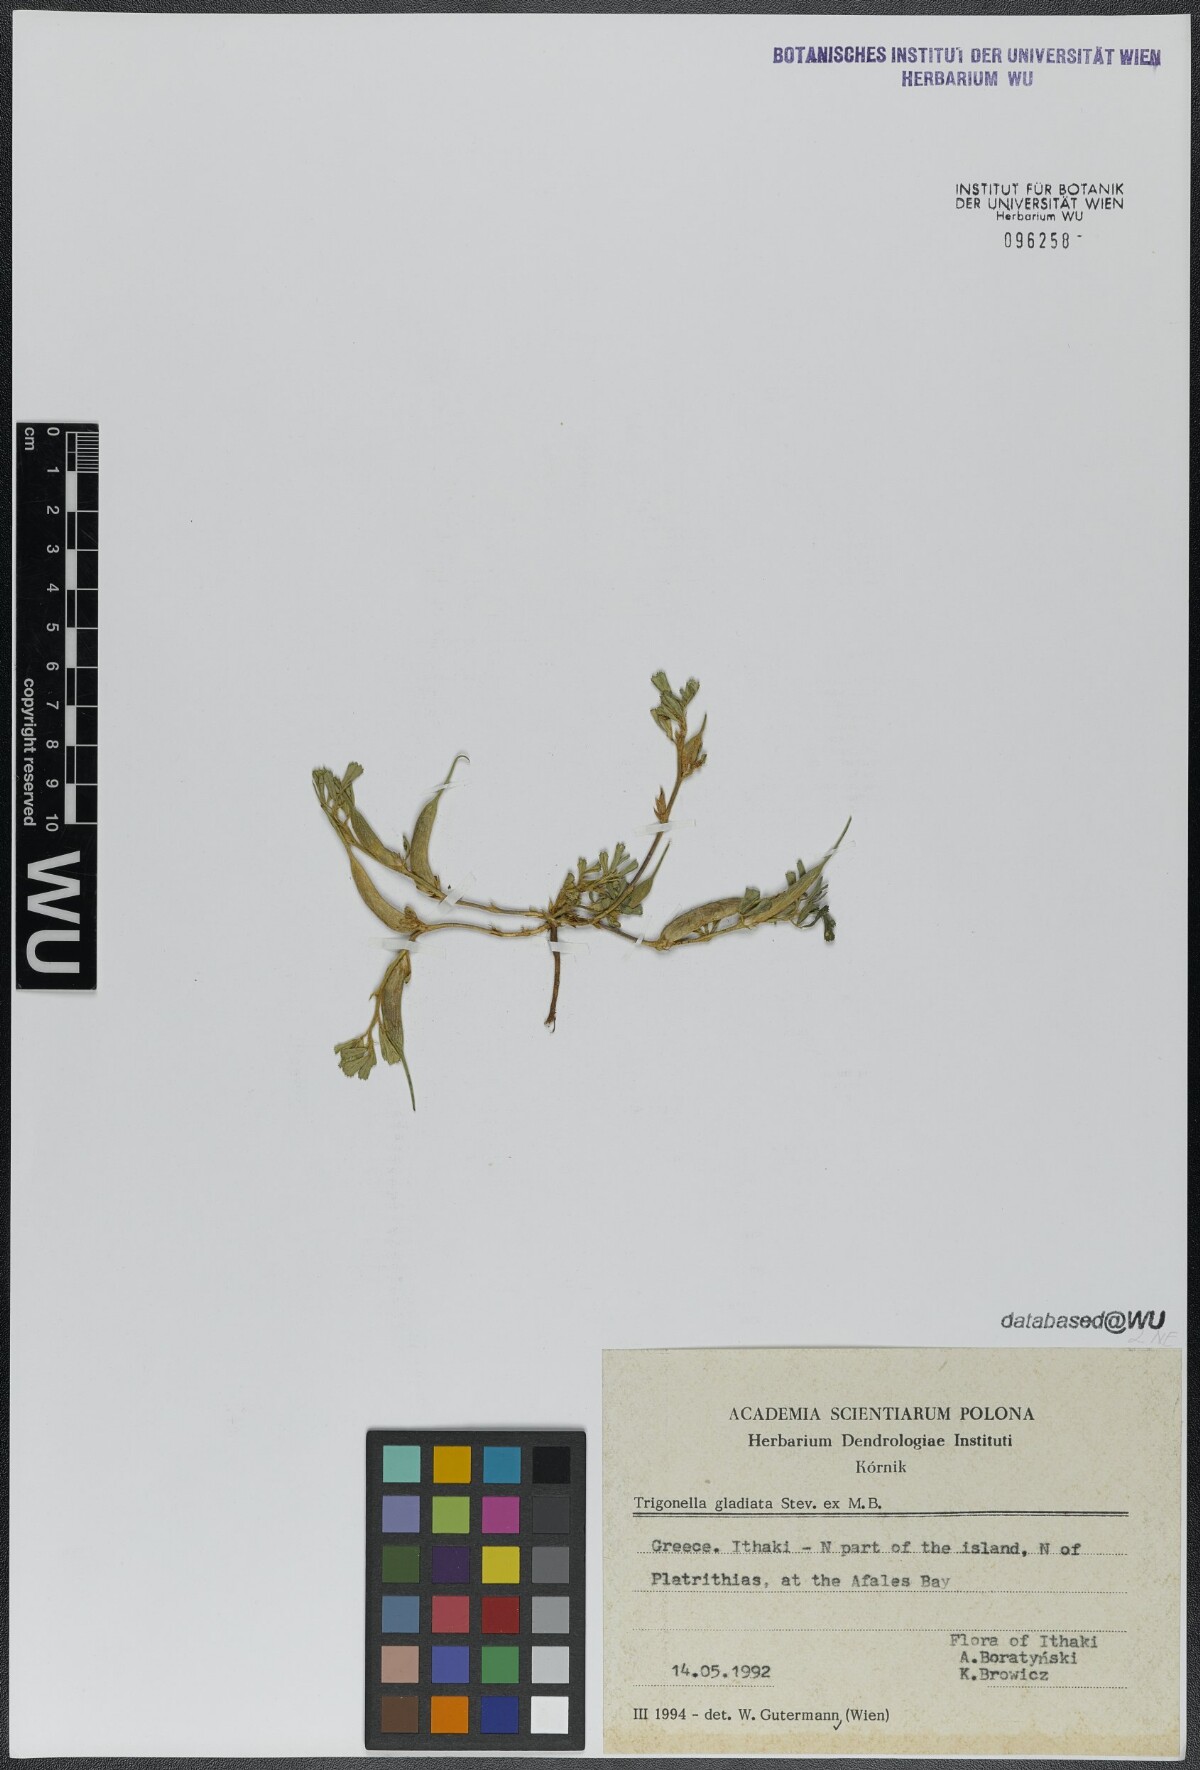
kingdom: Plantae
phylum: Tracheophyta
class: Magnoliopsida
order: Fabales
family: Fabaceae
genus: Trigonella
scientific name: Trigonella gladiata
